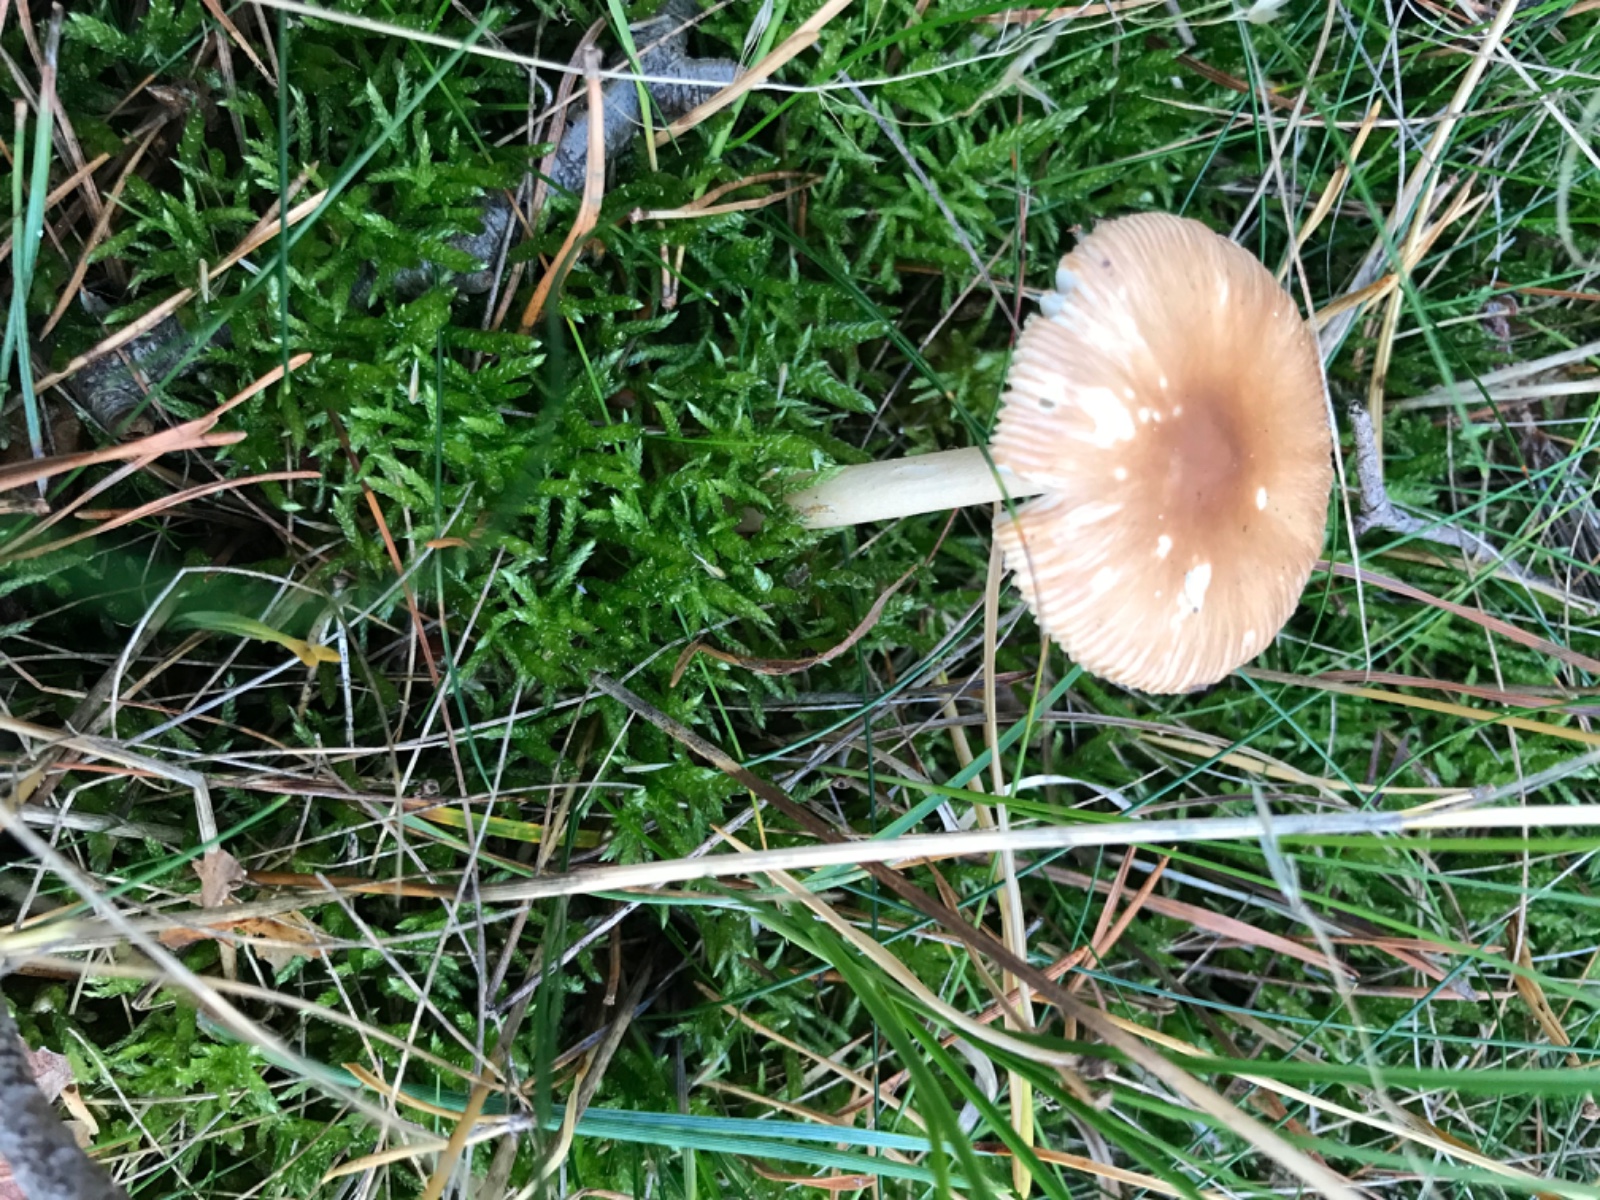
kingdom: Fungi
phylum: Basidiomycota
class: Agaricomycetes
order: Agaricales
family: Amanitaceae
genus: Amanita
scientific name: Amanita fulva
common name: brun kam-fluesvamp
